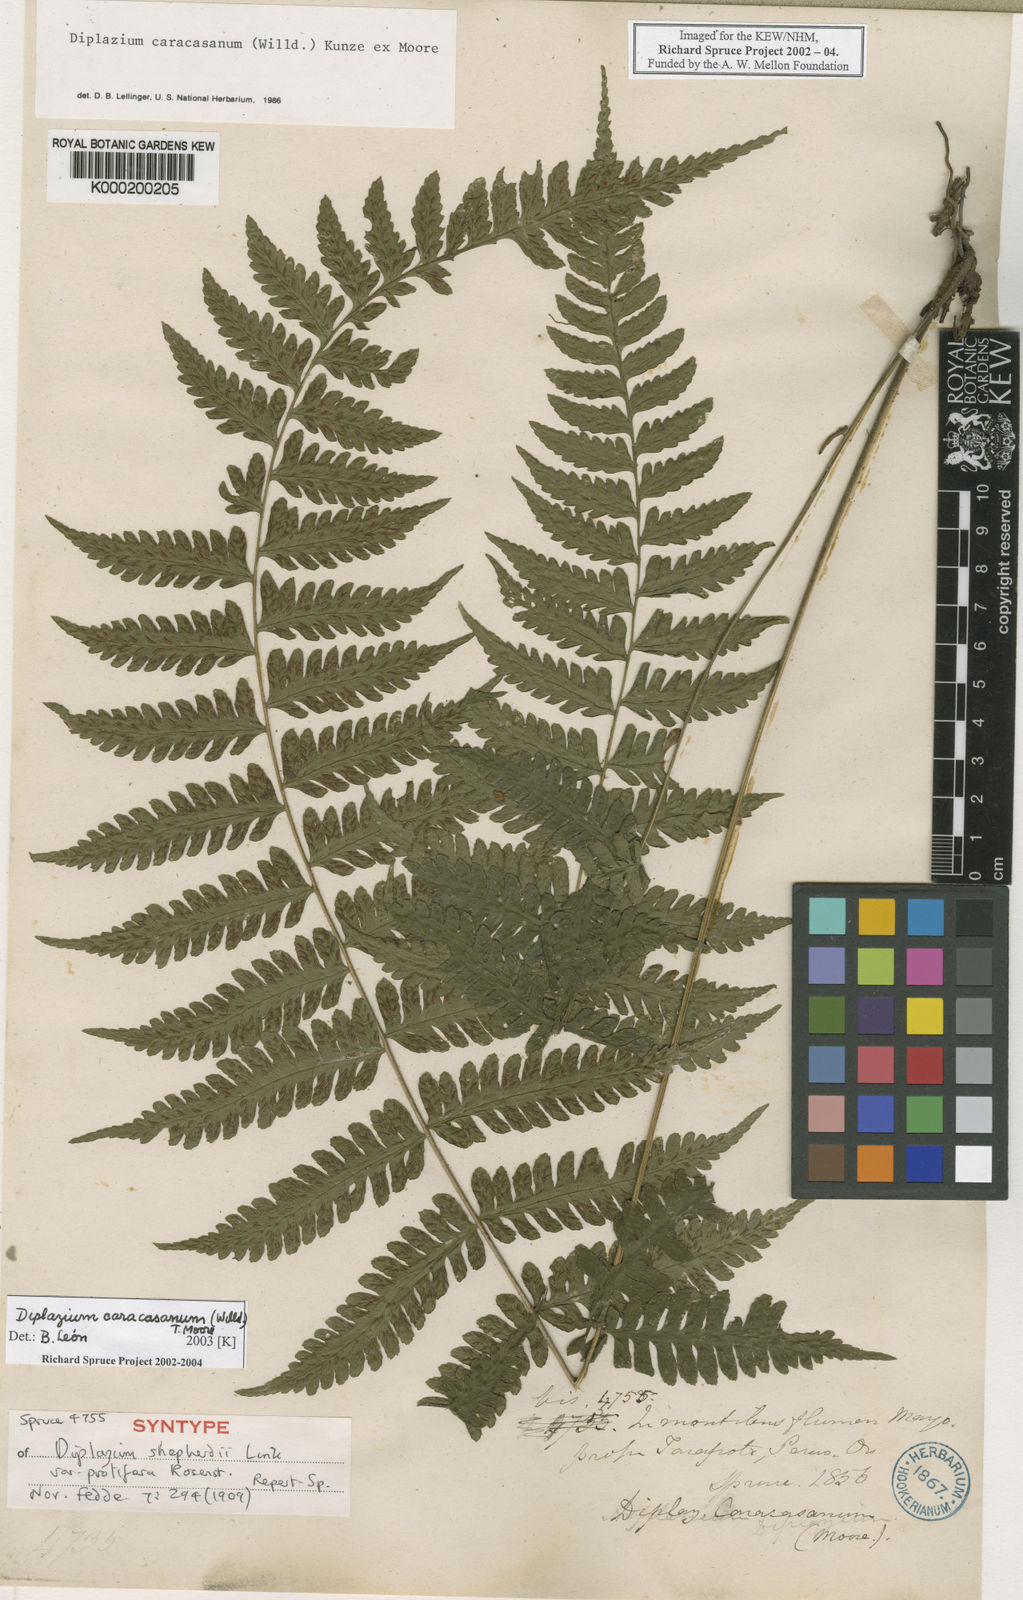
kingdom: Plantae
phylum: Tracheophyta
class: Polypodiopsida
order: Polypodiales
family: Athyriaceae
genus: Diplazium
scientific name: Diplazium
